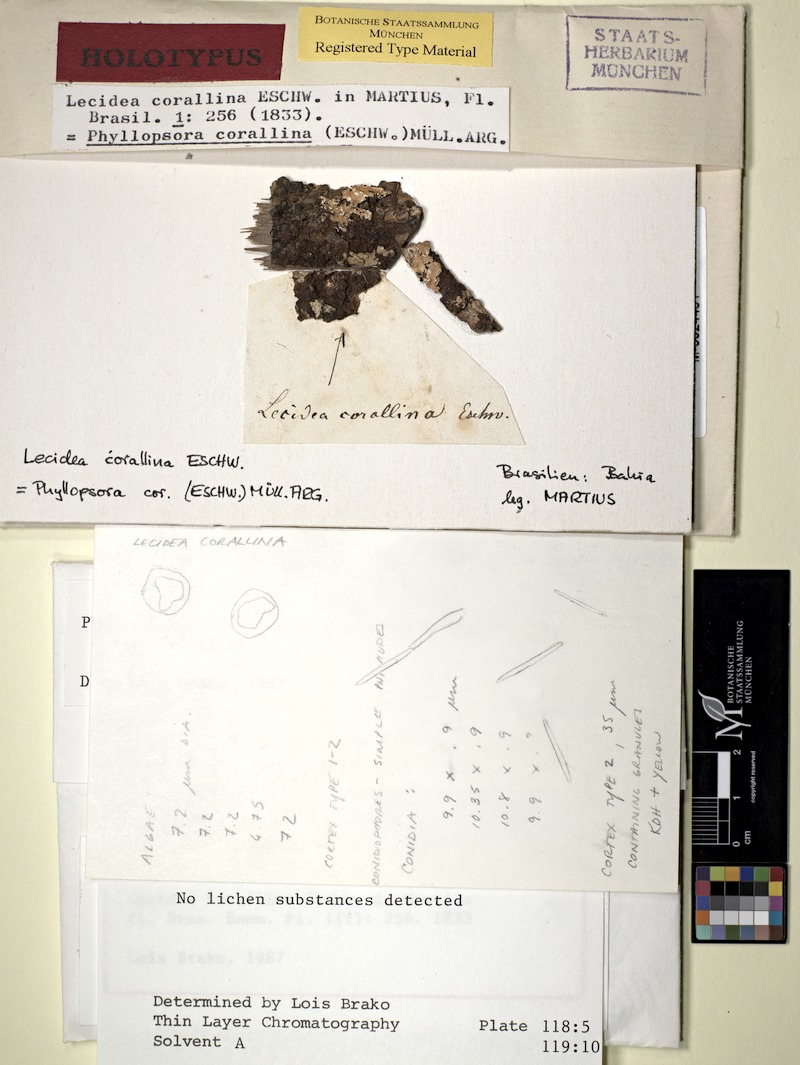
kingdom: Fungi
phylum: Ascomycota
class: Lecanoromycetes
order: Lecanorales
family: Ramalinaceae
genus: Phyllopsora
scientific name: Phyllopsora corallina
